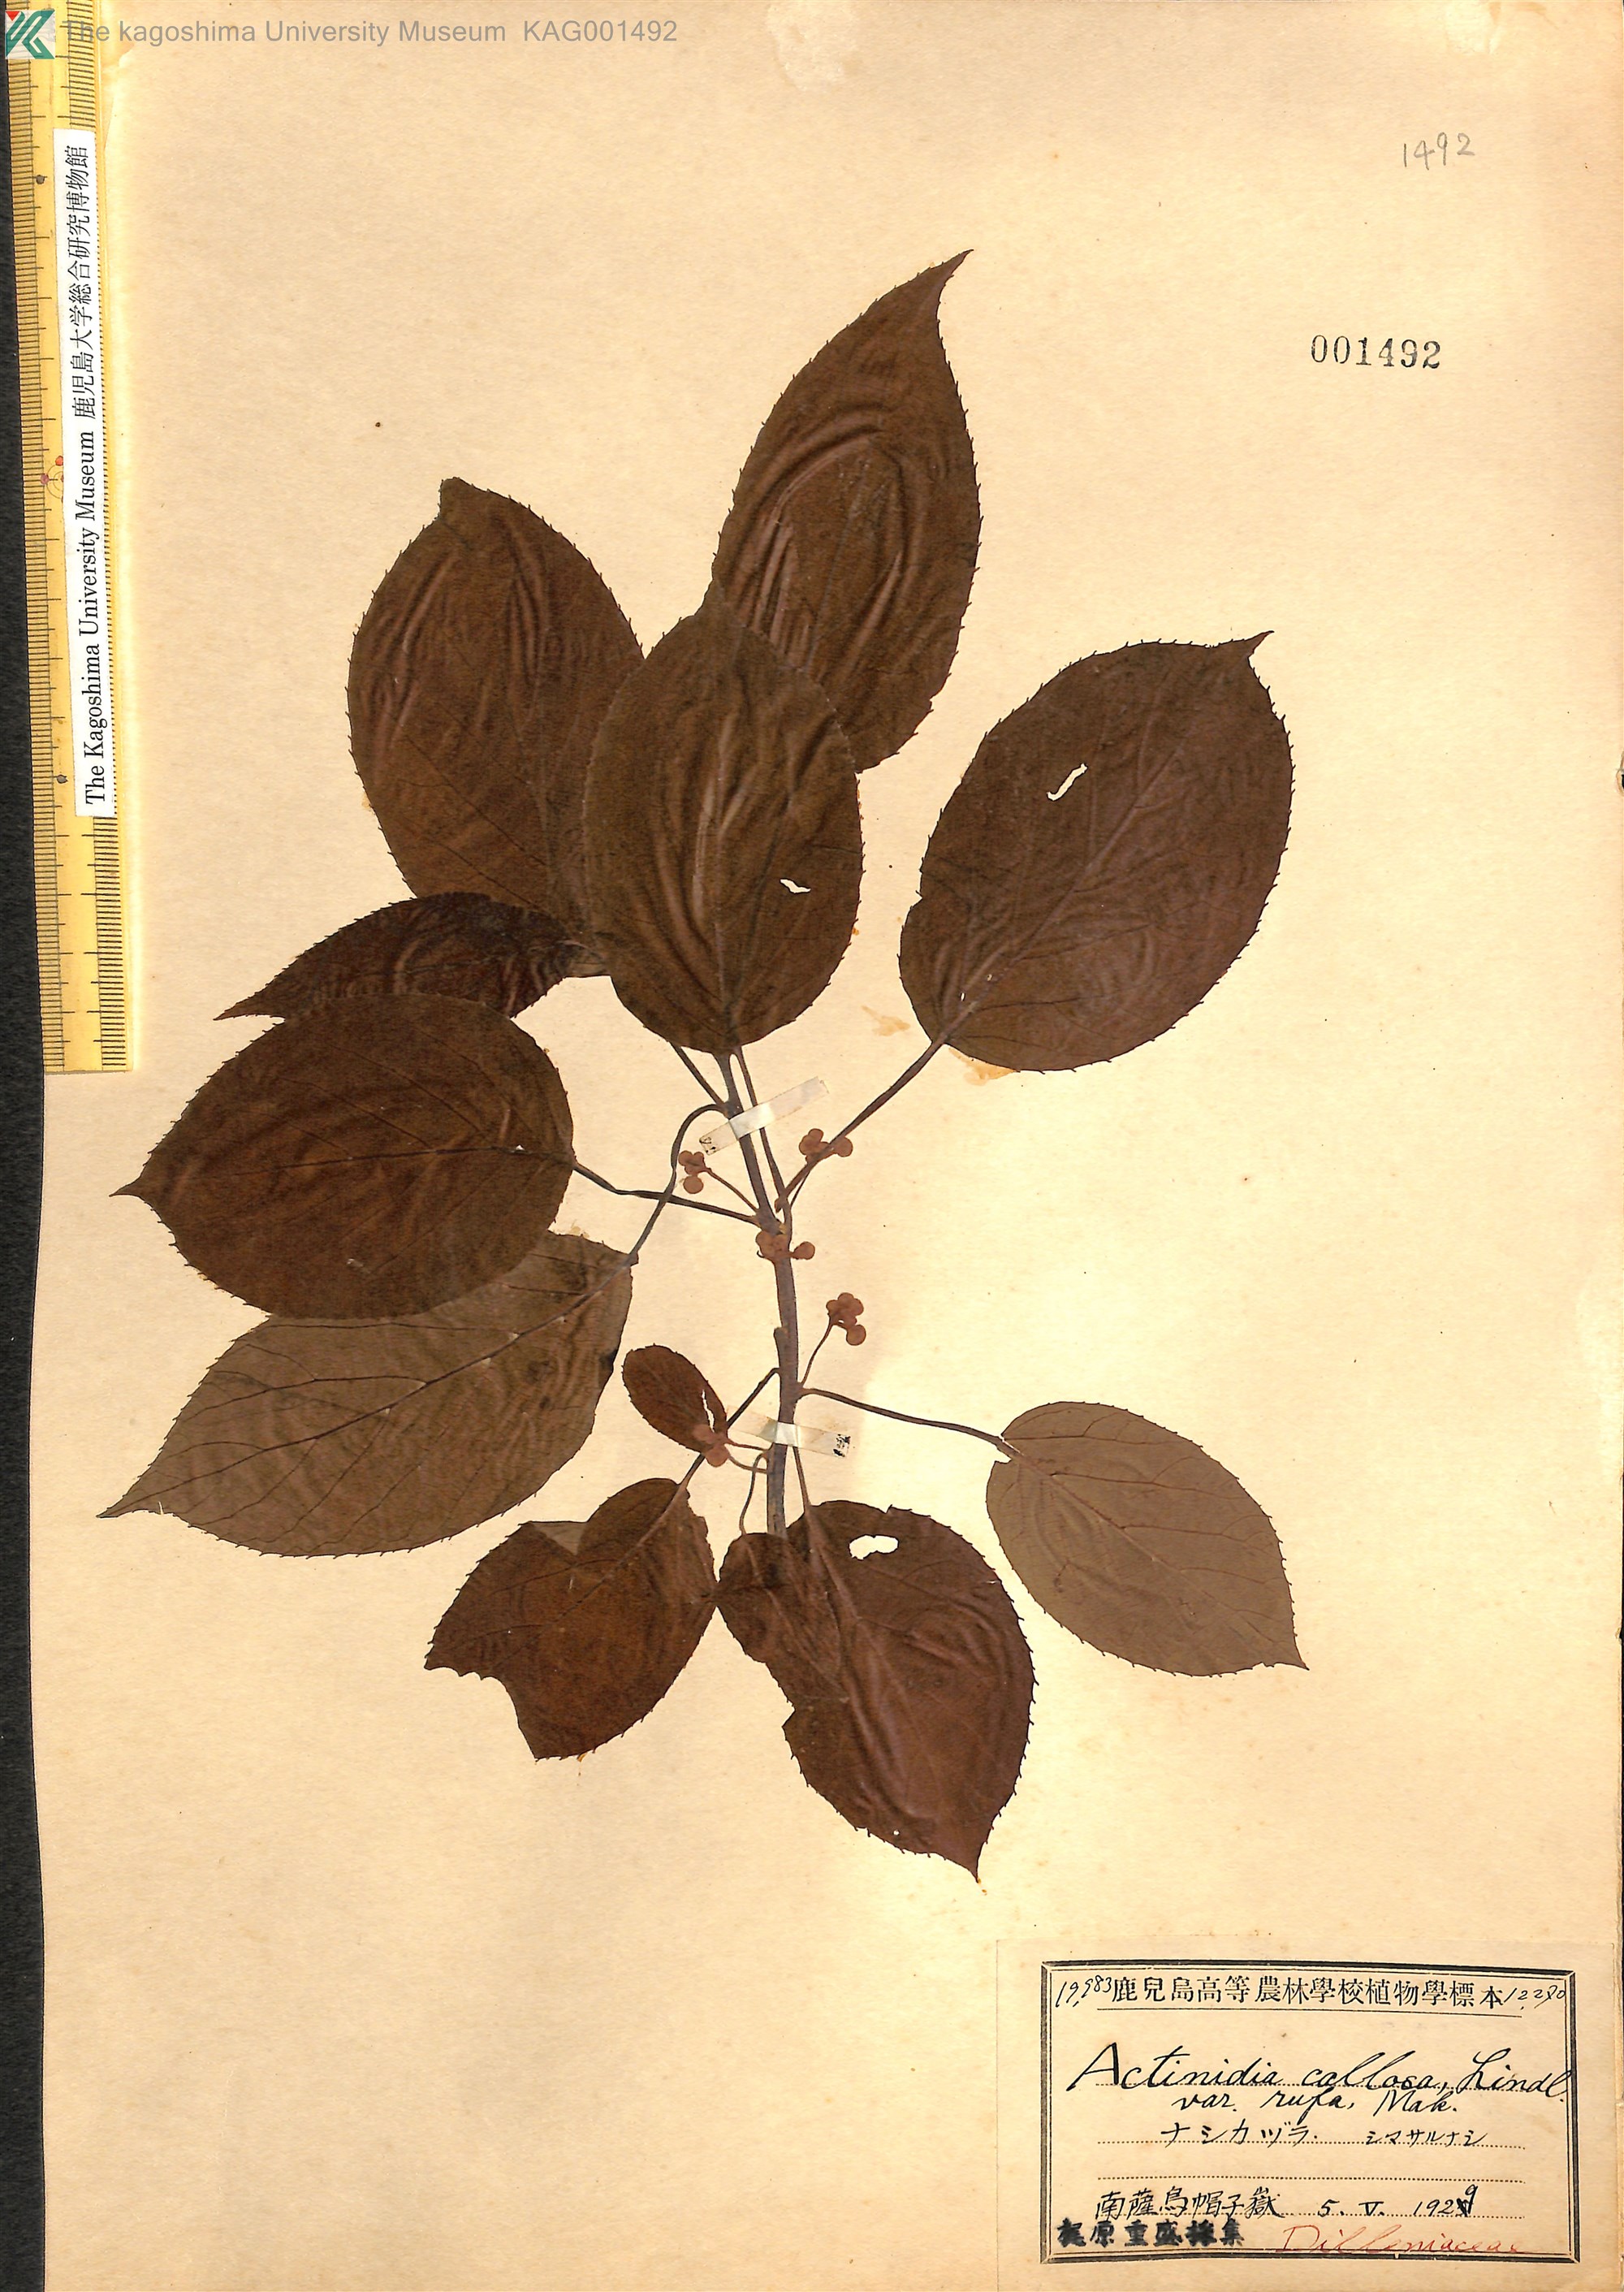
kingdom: Plantae
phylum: Tracheophyta
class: Magnoliopsida
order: Ericales
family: Actinidiaceae
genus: Actinidia
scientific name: Actinidia rufa
